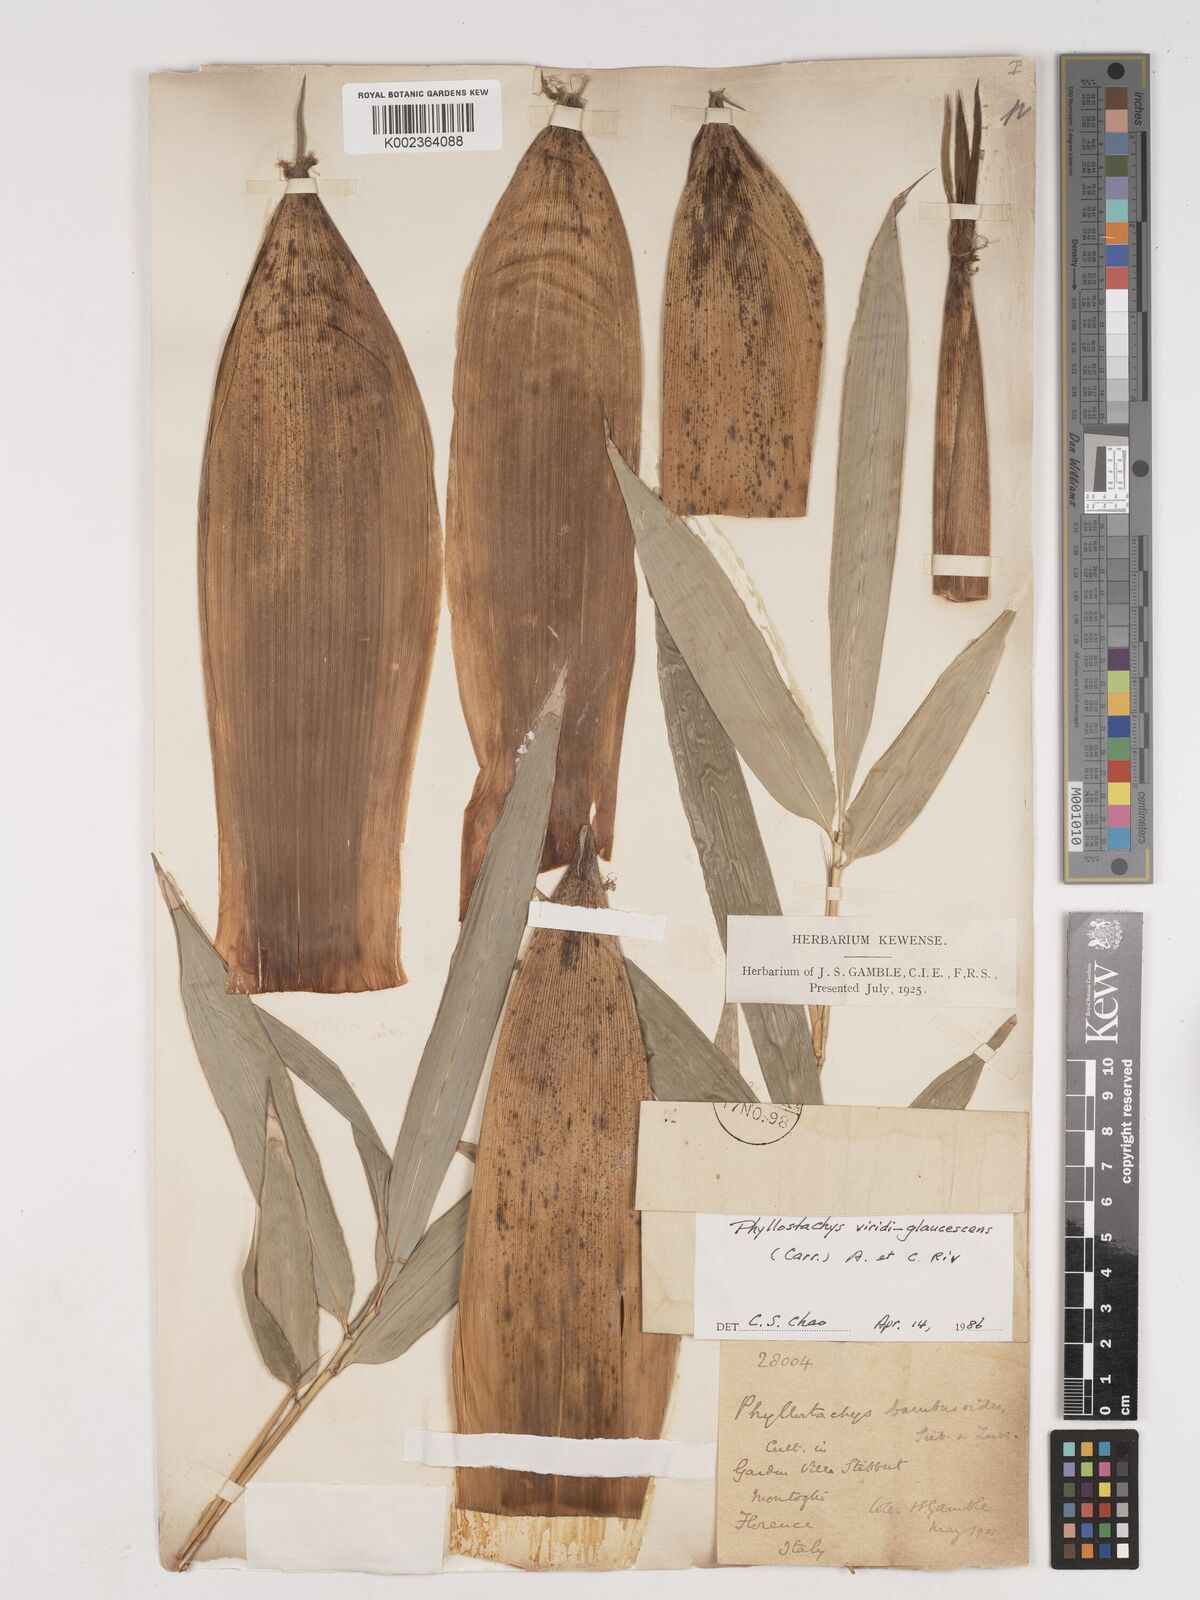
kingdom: Plantae
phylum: Tracheophyta
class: Liliopsida
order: Poales
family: Poaceae
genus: Phyllostachys
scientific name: Phyllostachys viridiglaucescens
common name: Greenwax golden bamboo
